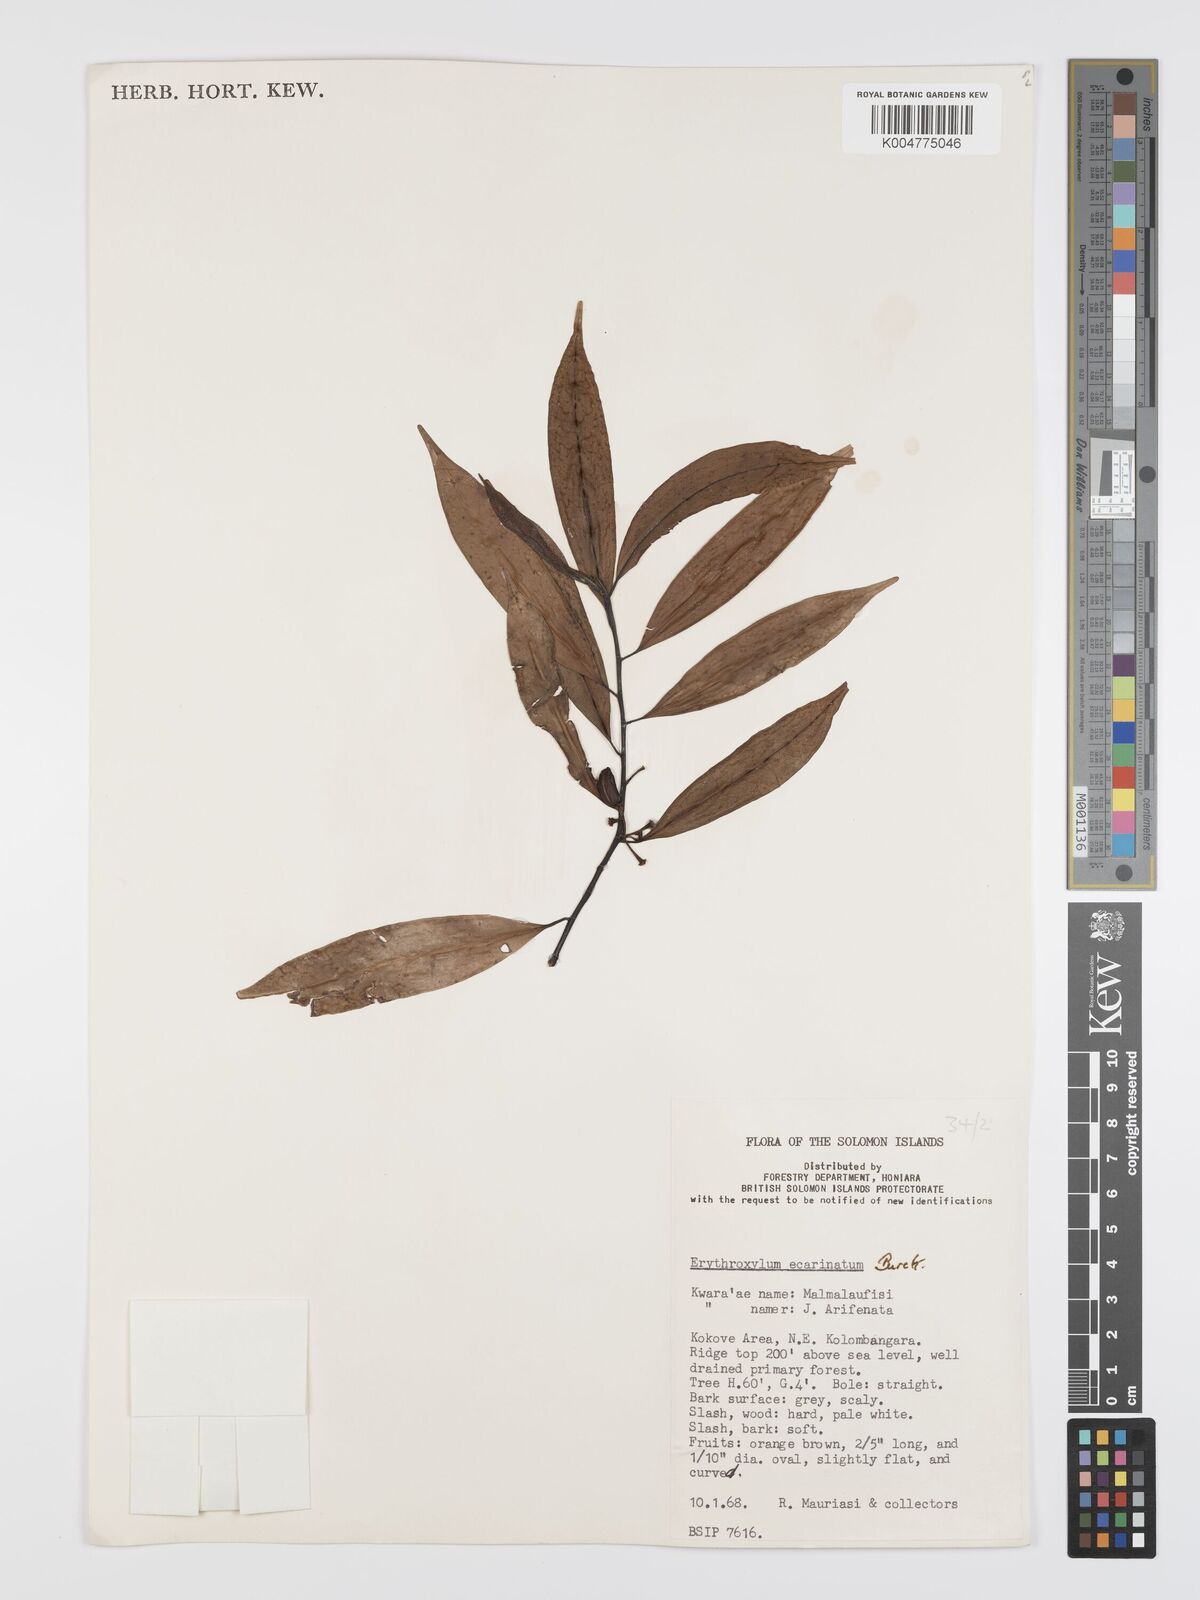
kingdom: Plantae
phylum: Tracheophyta
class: Magnoliopsida
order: Malpighiales
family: Erythroxylaceae
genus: Erythroxylum
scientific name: Erythroxylum ecarinatum
